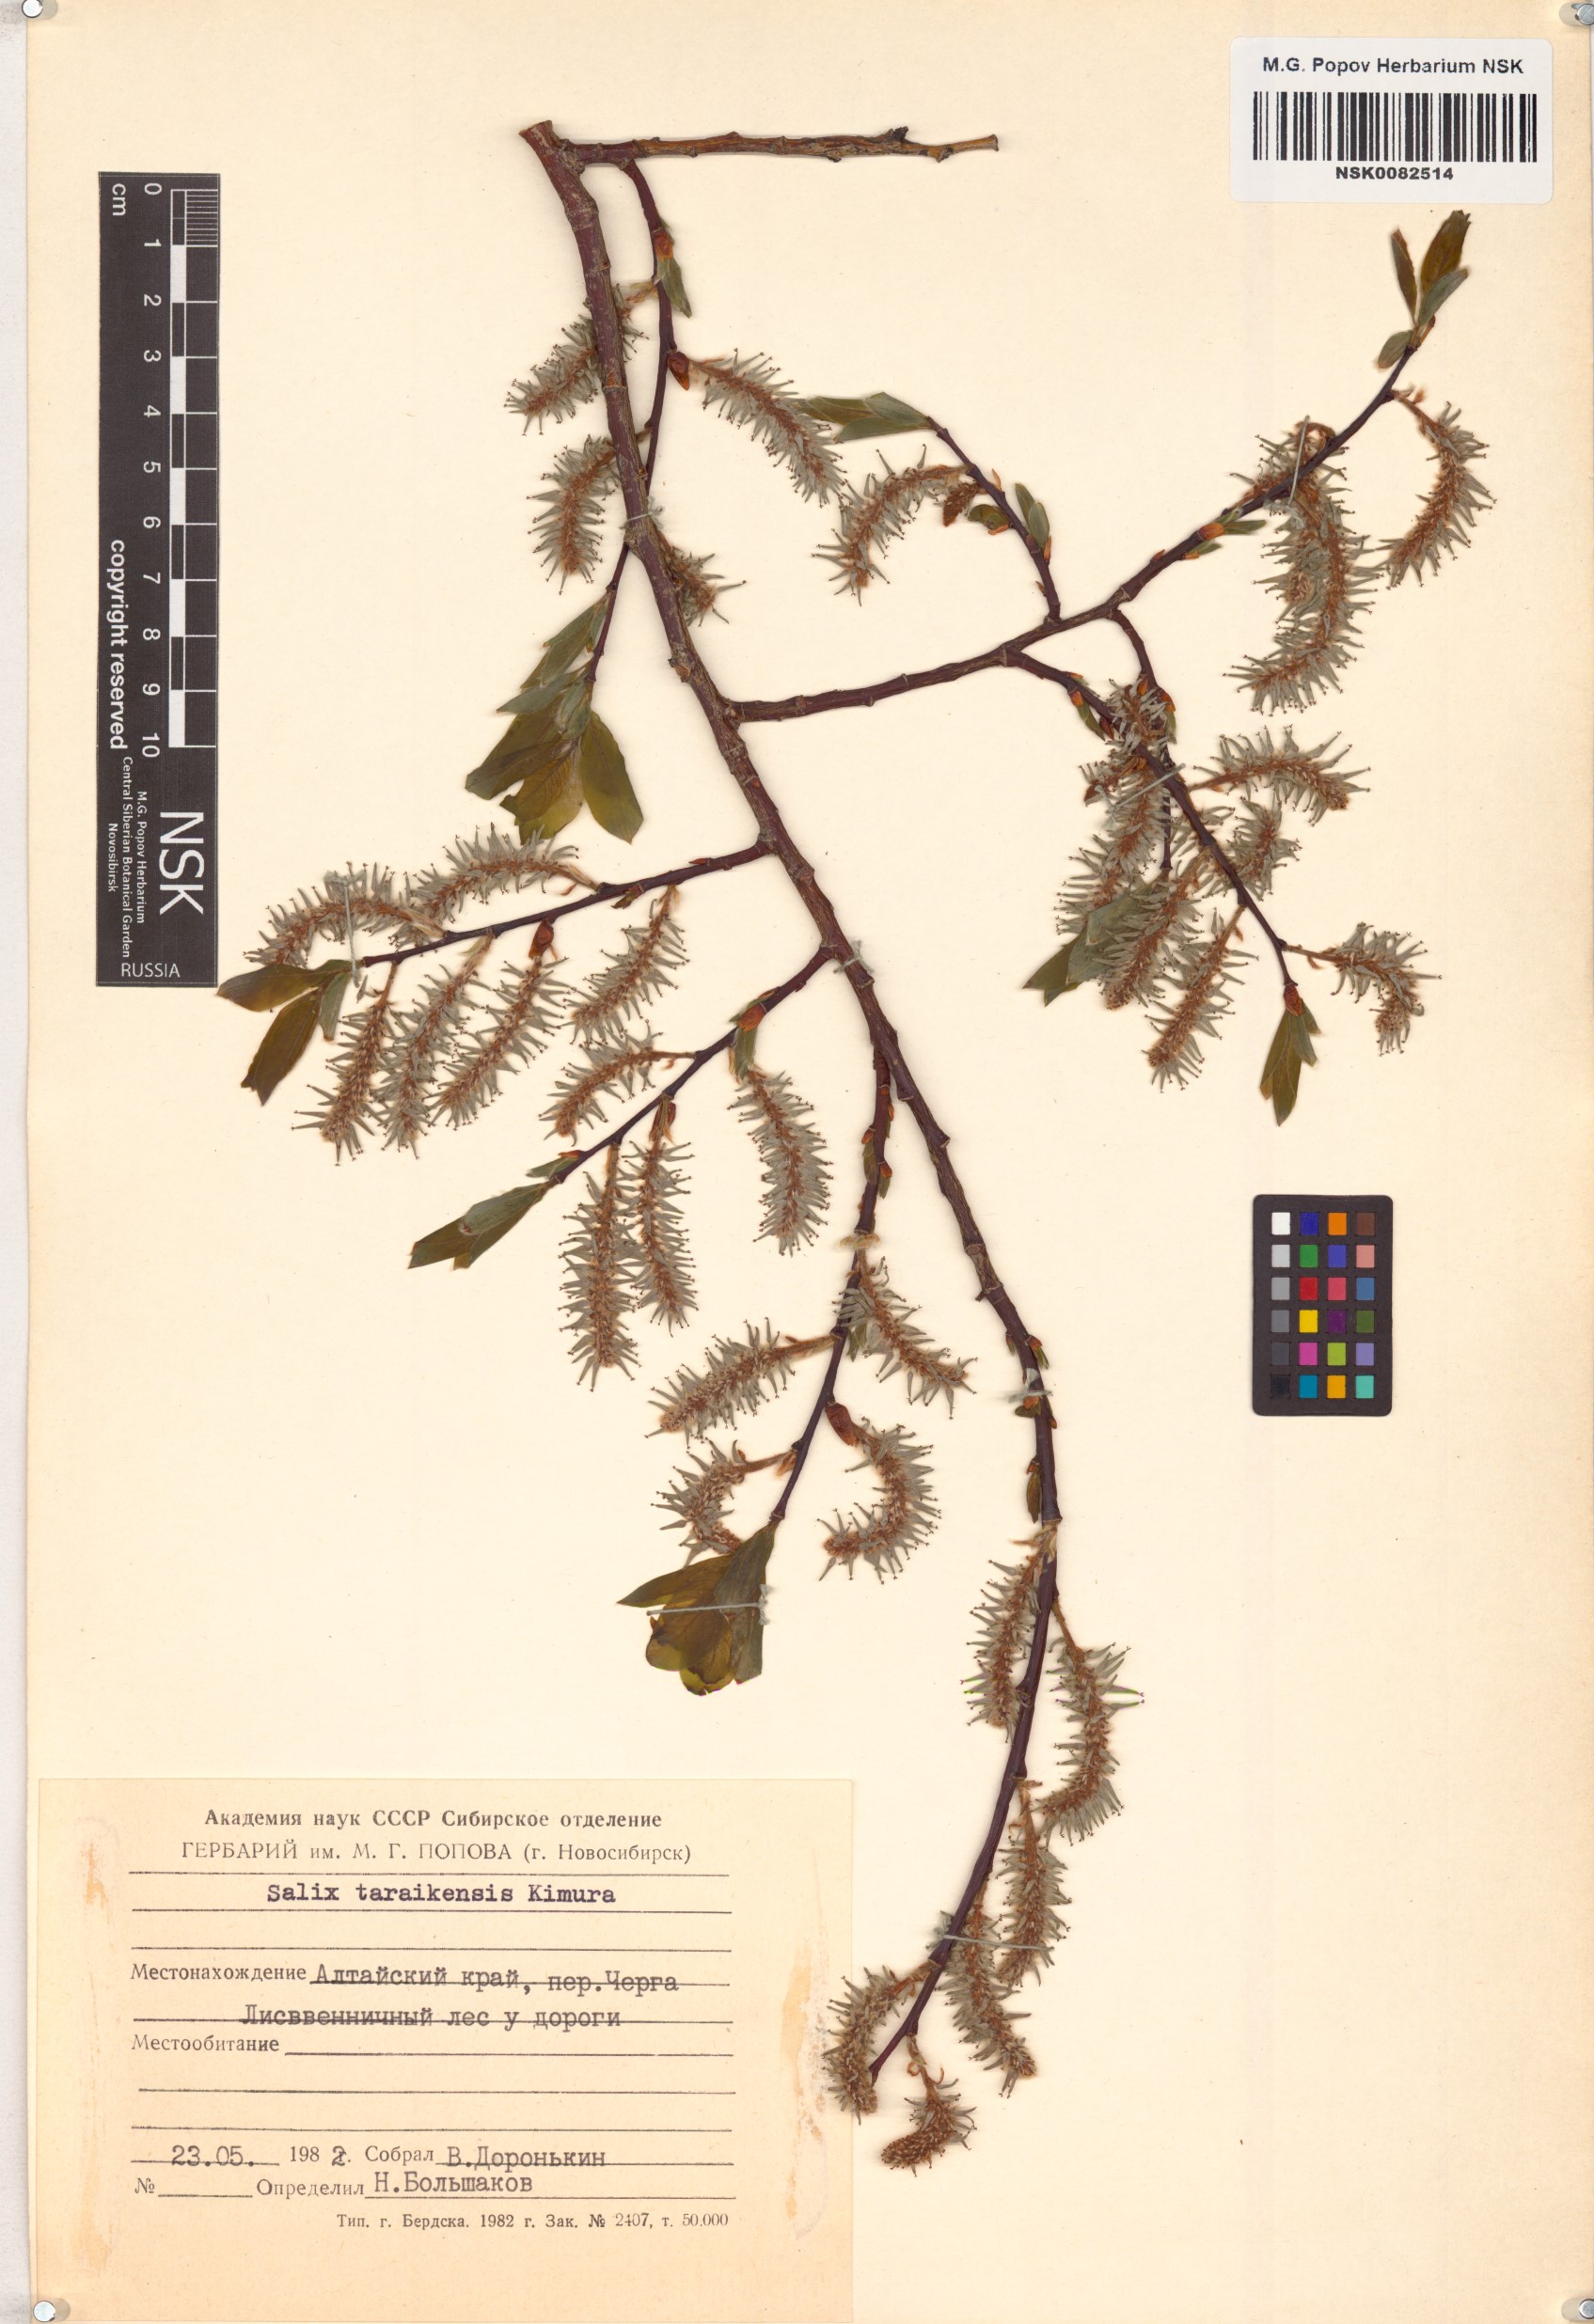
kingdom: Plantae
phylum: Tracheophyta
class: Magnoliopsida
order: Malpighiales
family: Salicaceae
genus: Salix
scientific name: Salix taraikensis
